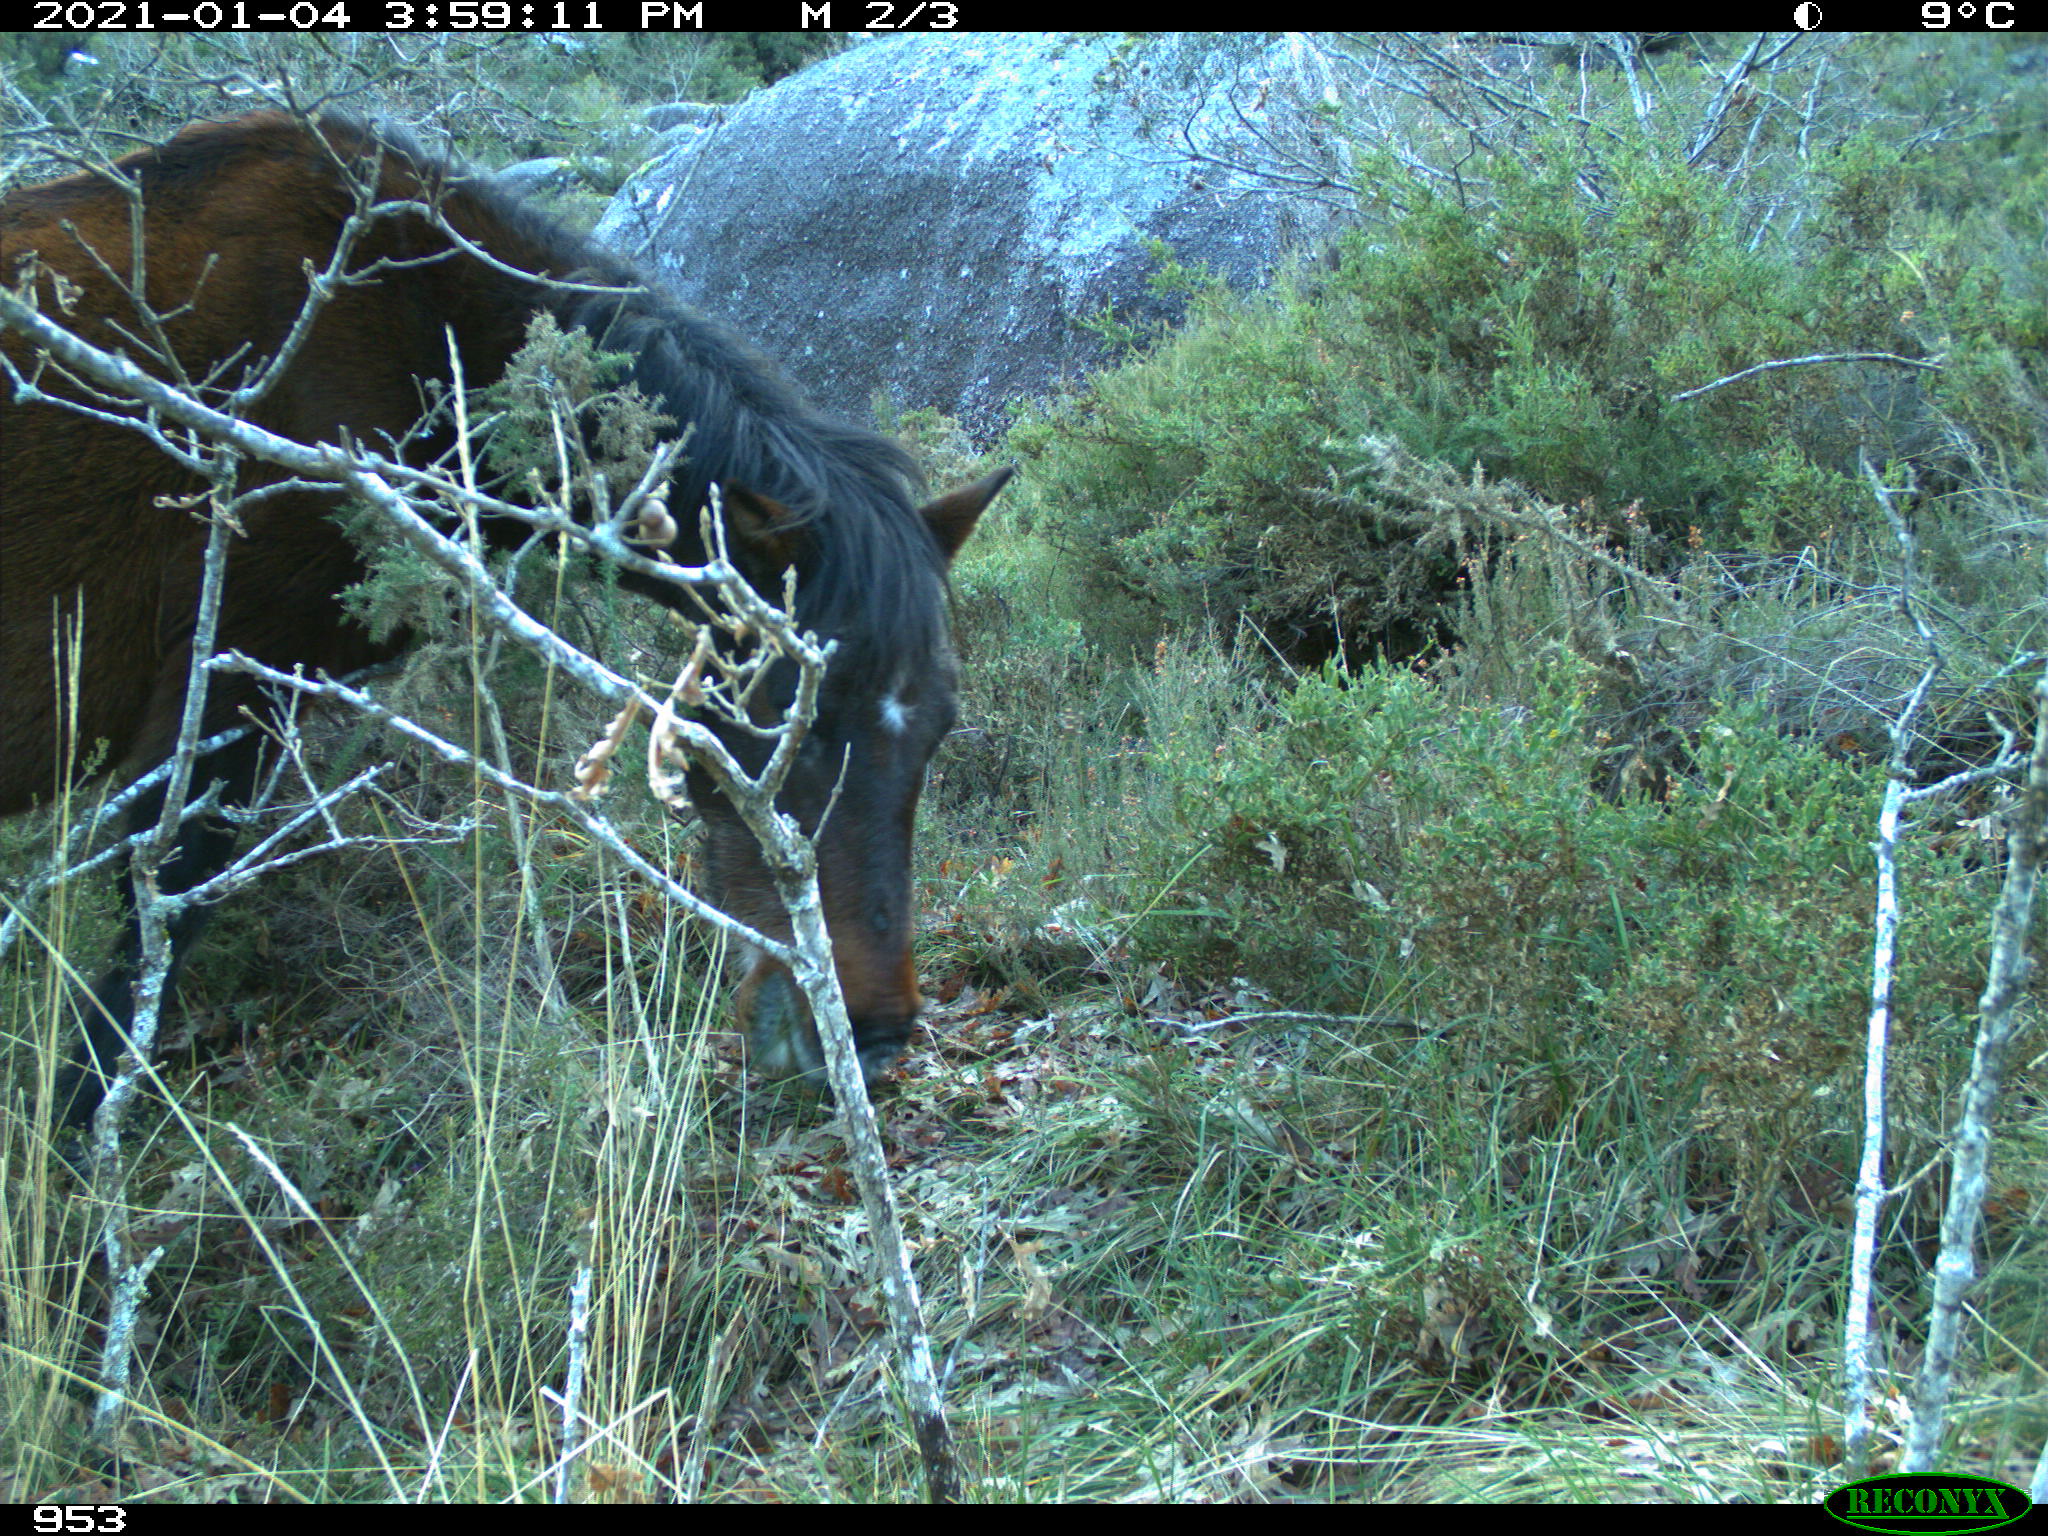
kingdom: Animalia
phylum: Chordata
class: Mammalia
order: Perissodactyla
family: Equidae
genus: Equus
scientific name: Equus caballus
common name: Horse
